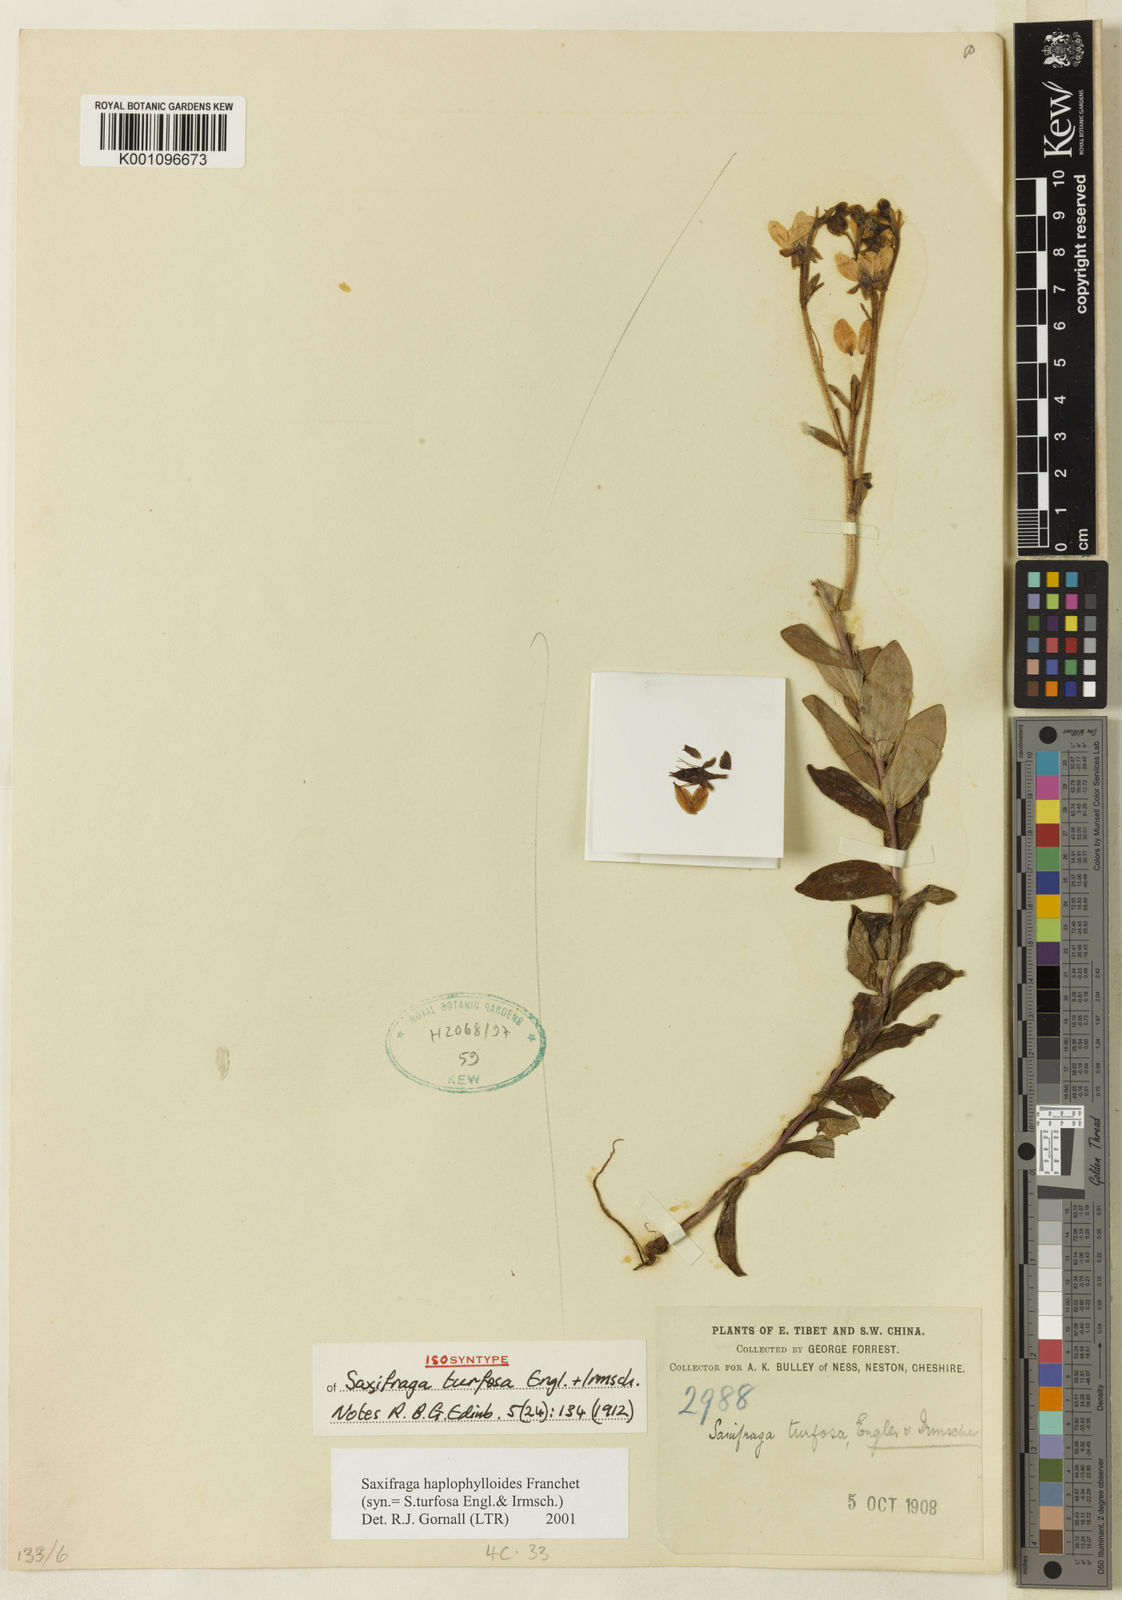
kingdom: Plantae
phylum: Tracheophyta
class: Magnoliopsida
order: Saxifragales
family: Saxifragaceae
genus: Saxifraga
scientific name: Saxifraga
